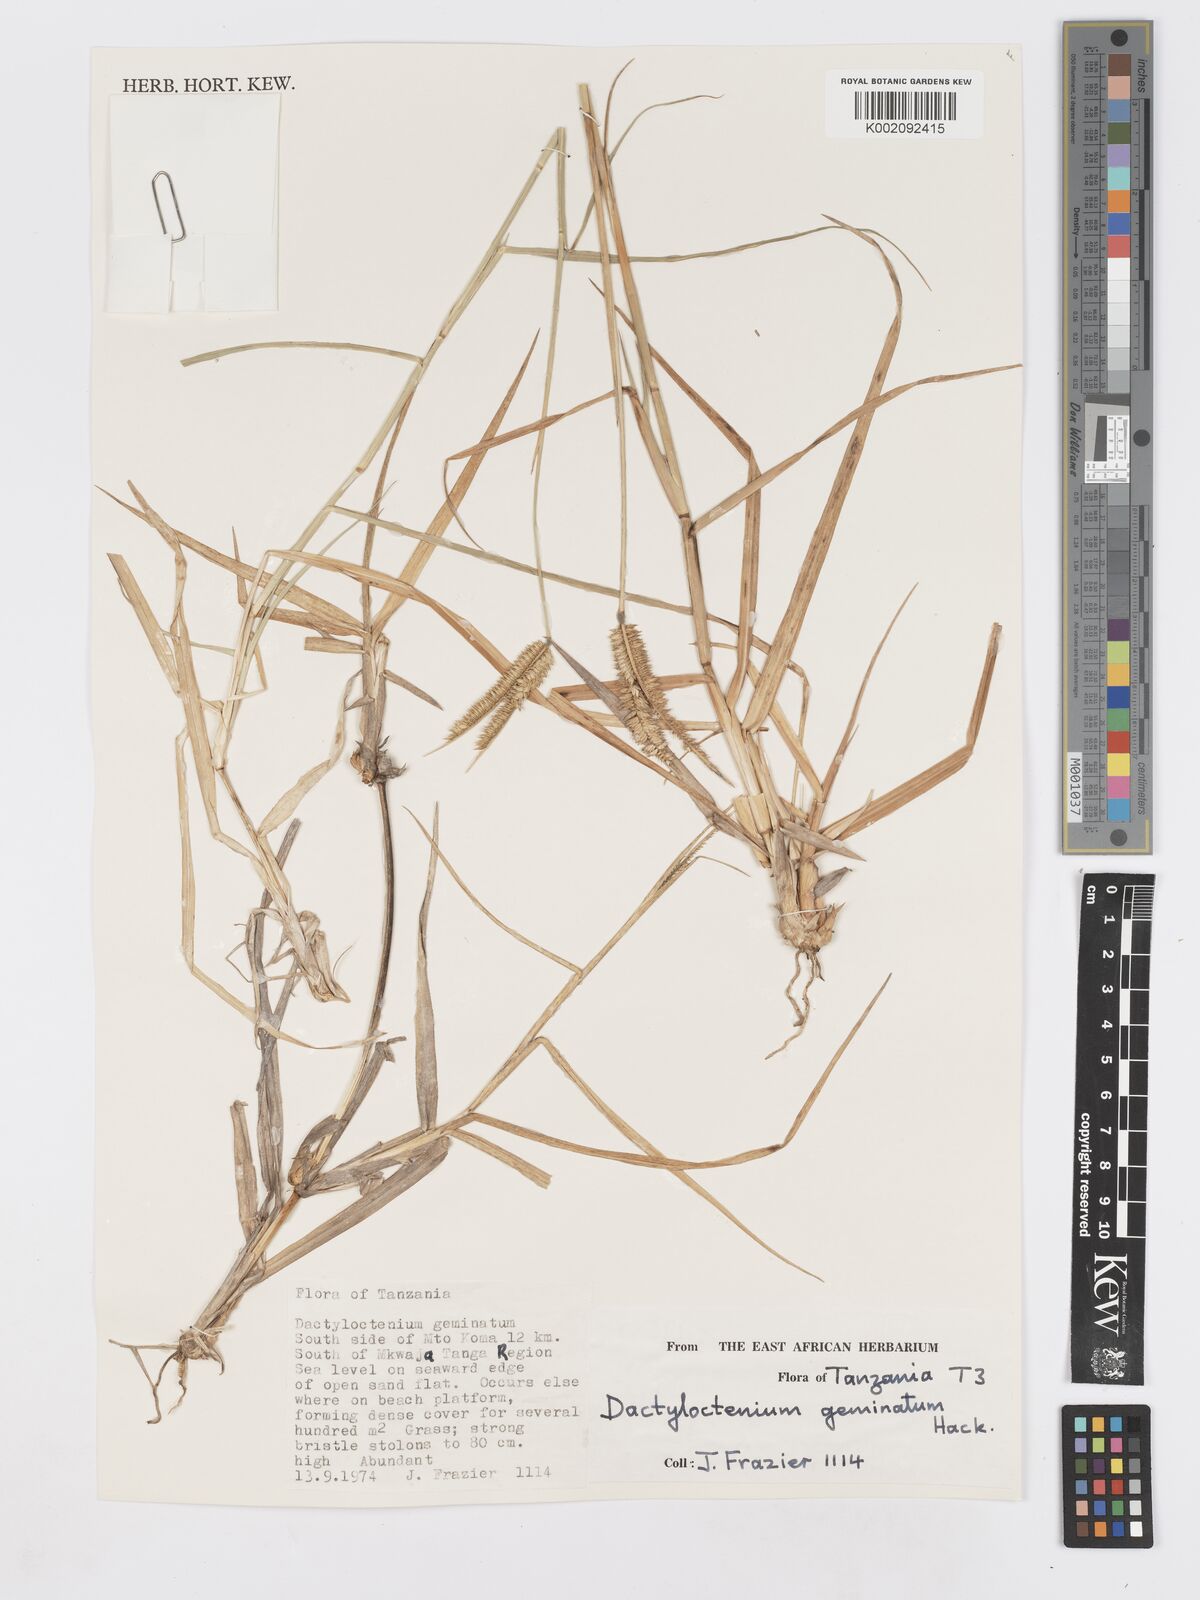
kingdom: Plantae
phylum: Tracheophyta
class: Liliopsida
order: Poales
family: Poaceae
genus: Dactyloctenium
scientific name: Dactyloctenium geminatum
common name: Crowsfoot grass
